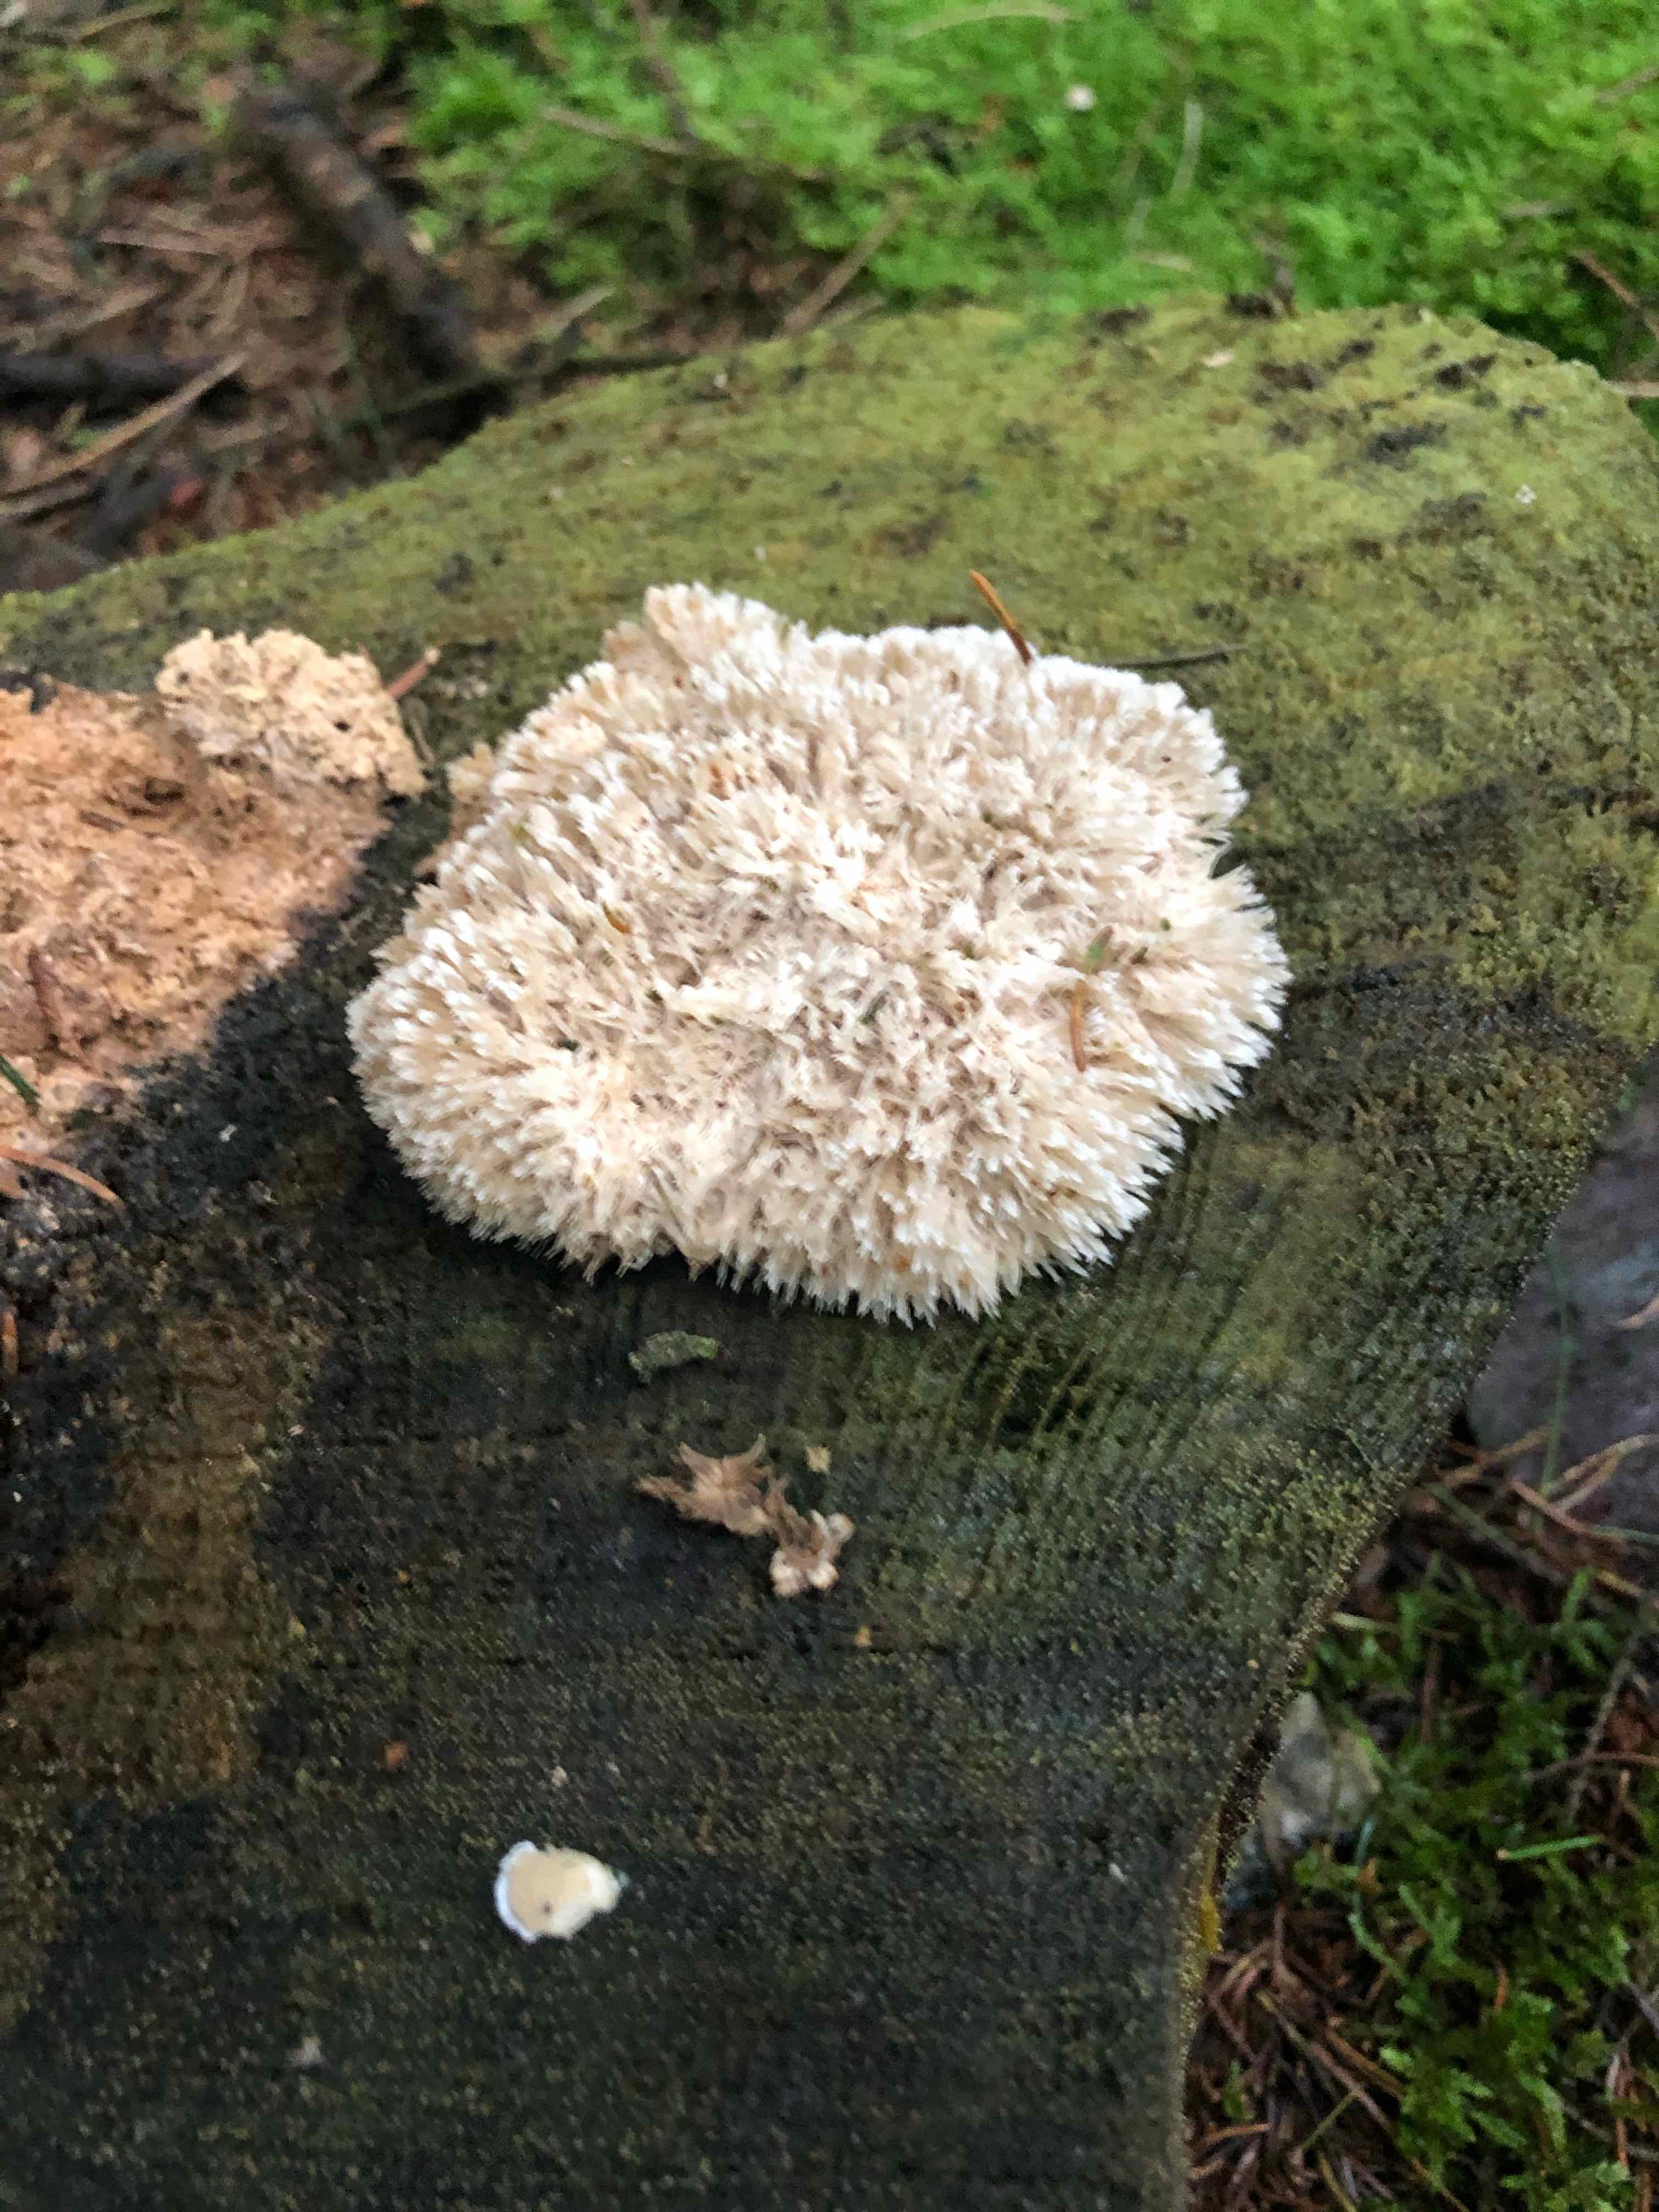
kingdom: Fungi
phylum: Basidiomycota
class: Agaricomycetes
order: Polyporales
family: Dacryobolaceae
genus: Postia
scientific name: Postia ptychogaster
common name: støvende kødporesvamp
